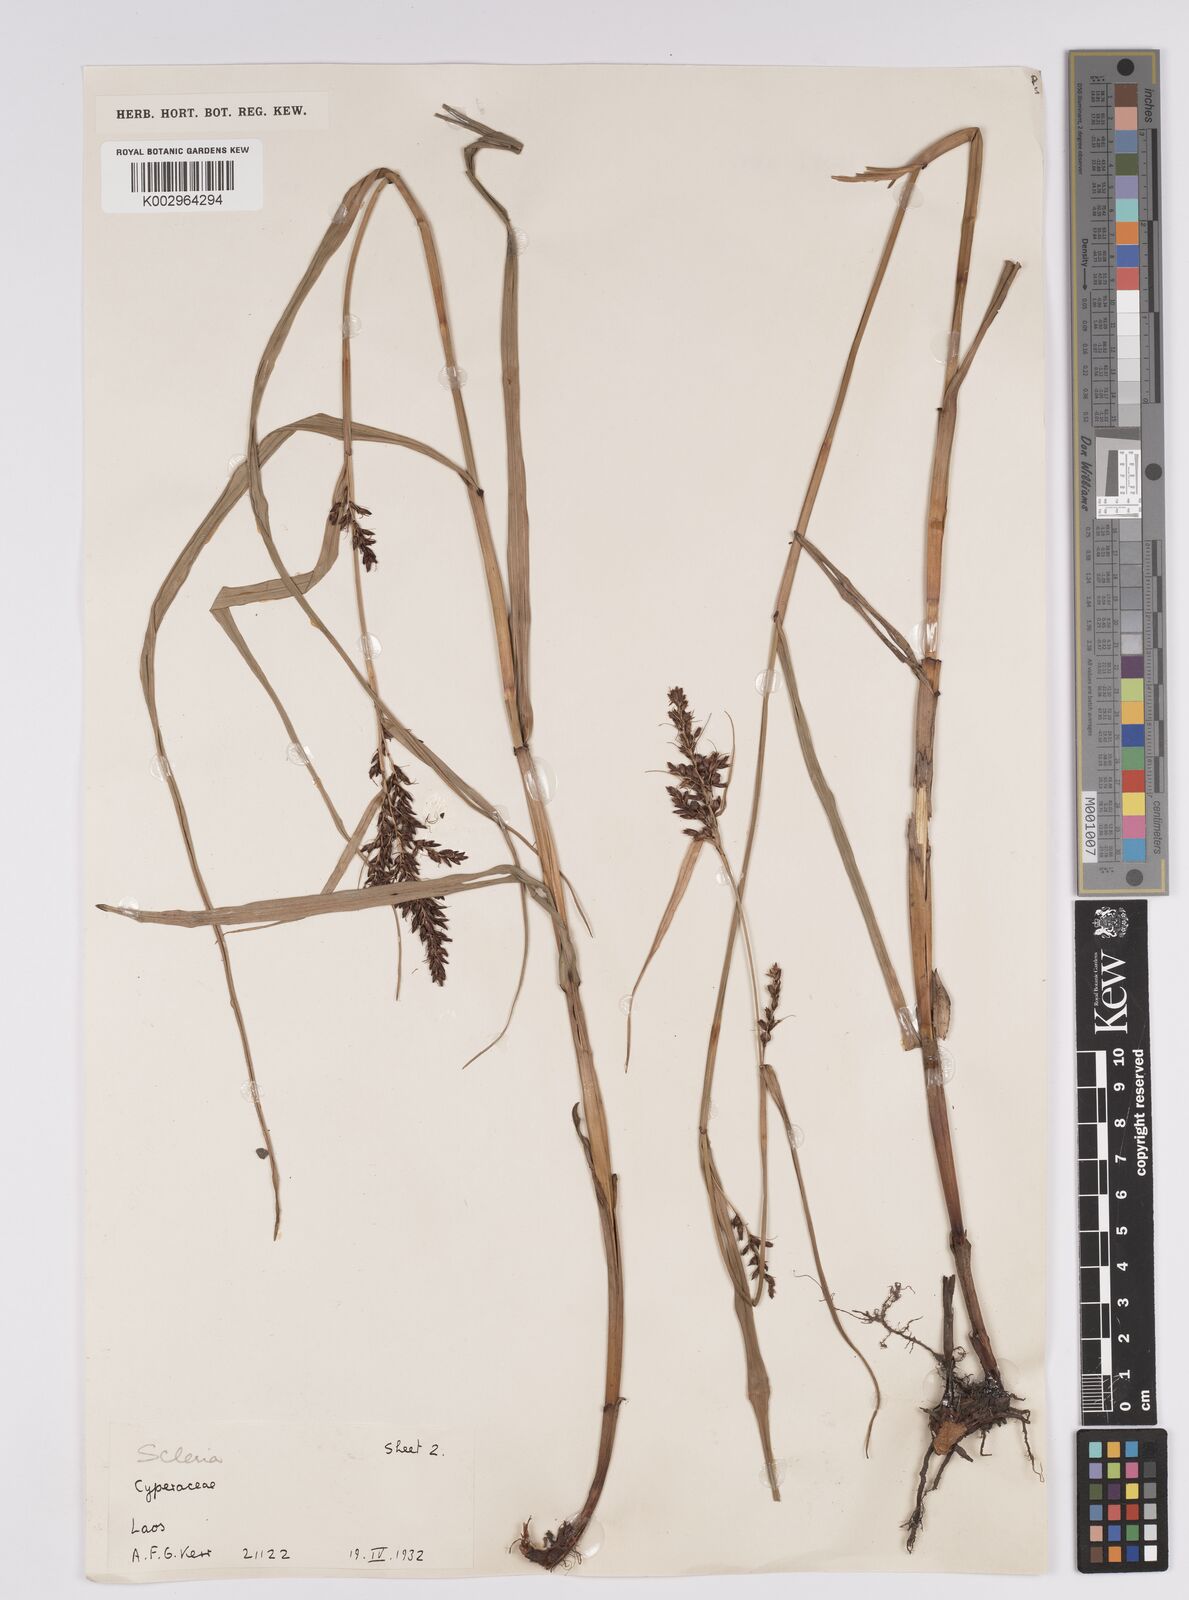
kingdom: Plantae
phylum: Tracheophyta
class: Liliopsida
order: Poales
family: Cyperaceae
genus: Scleria
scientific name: Scleria
